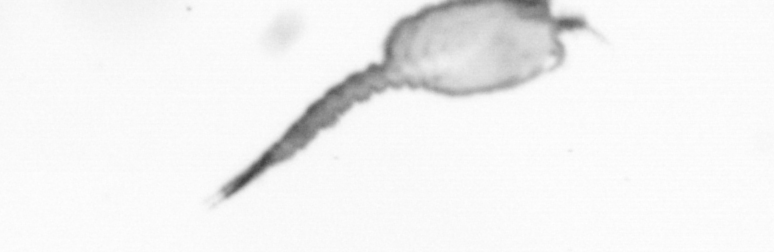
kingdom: Animalia
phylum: Arthropoda
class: Copepoda
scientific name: Copepoda
